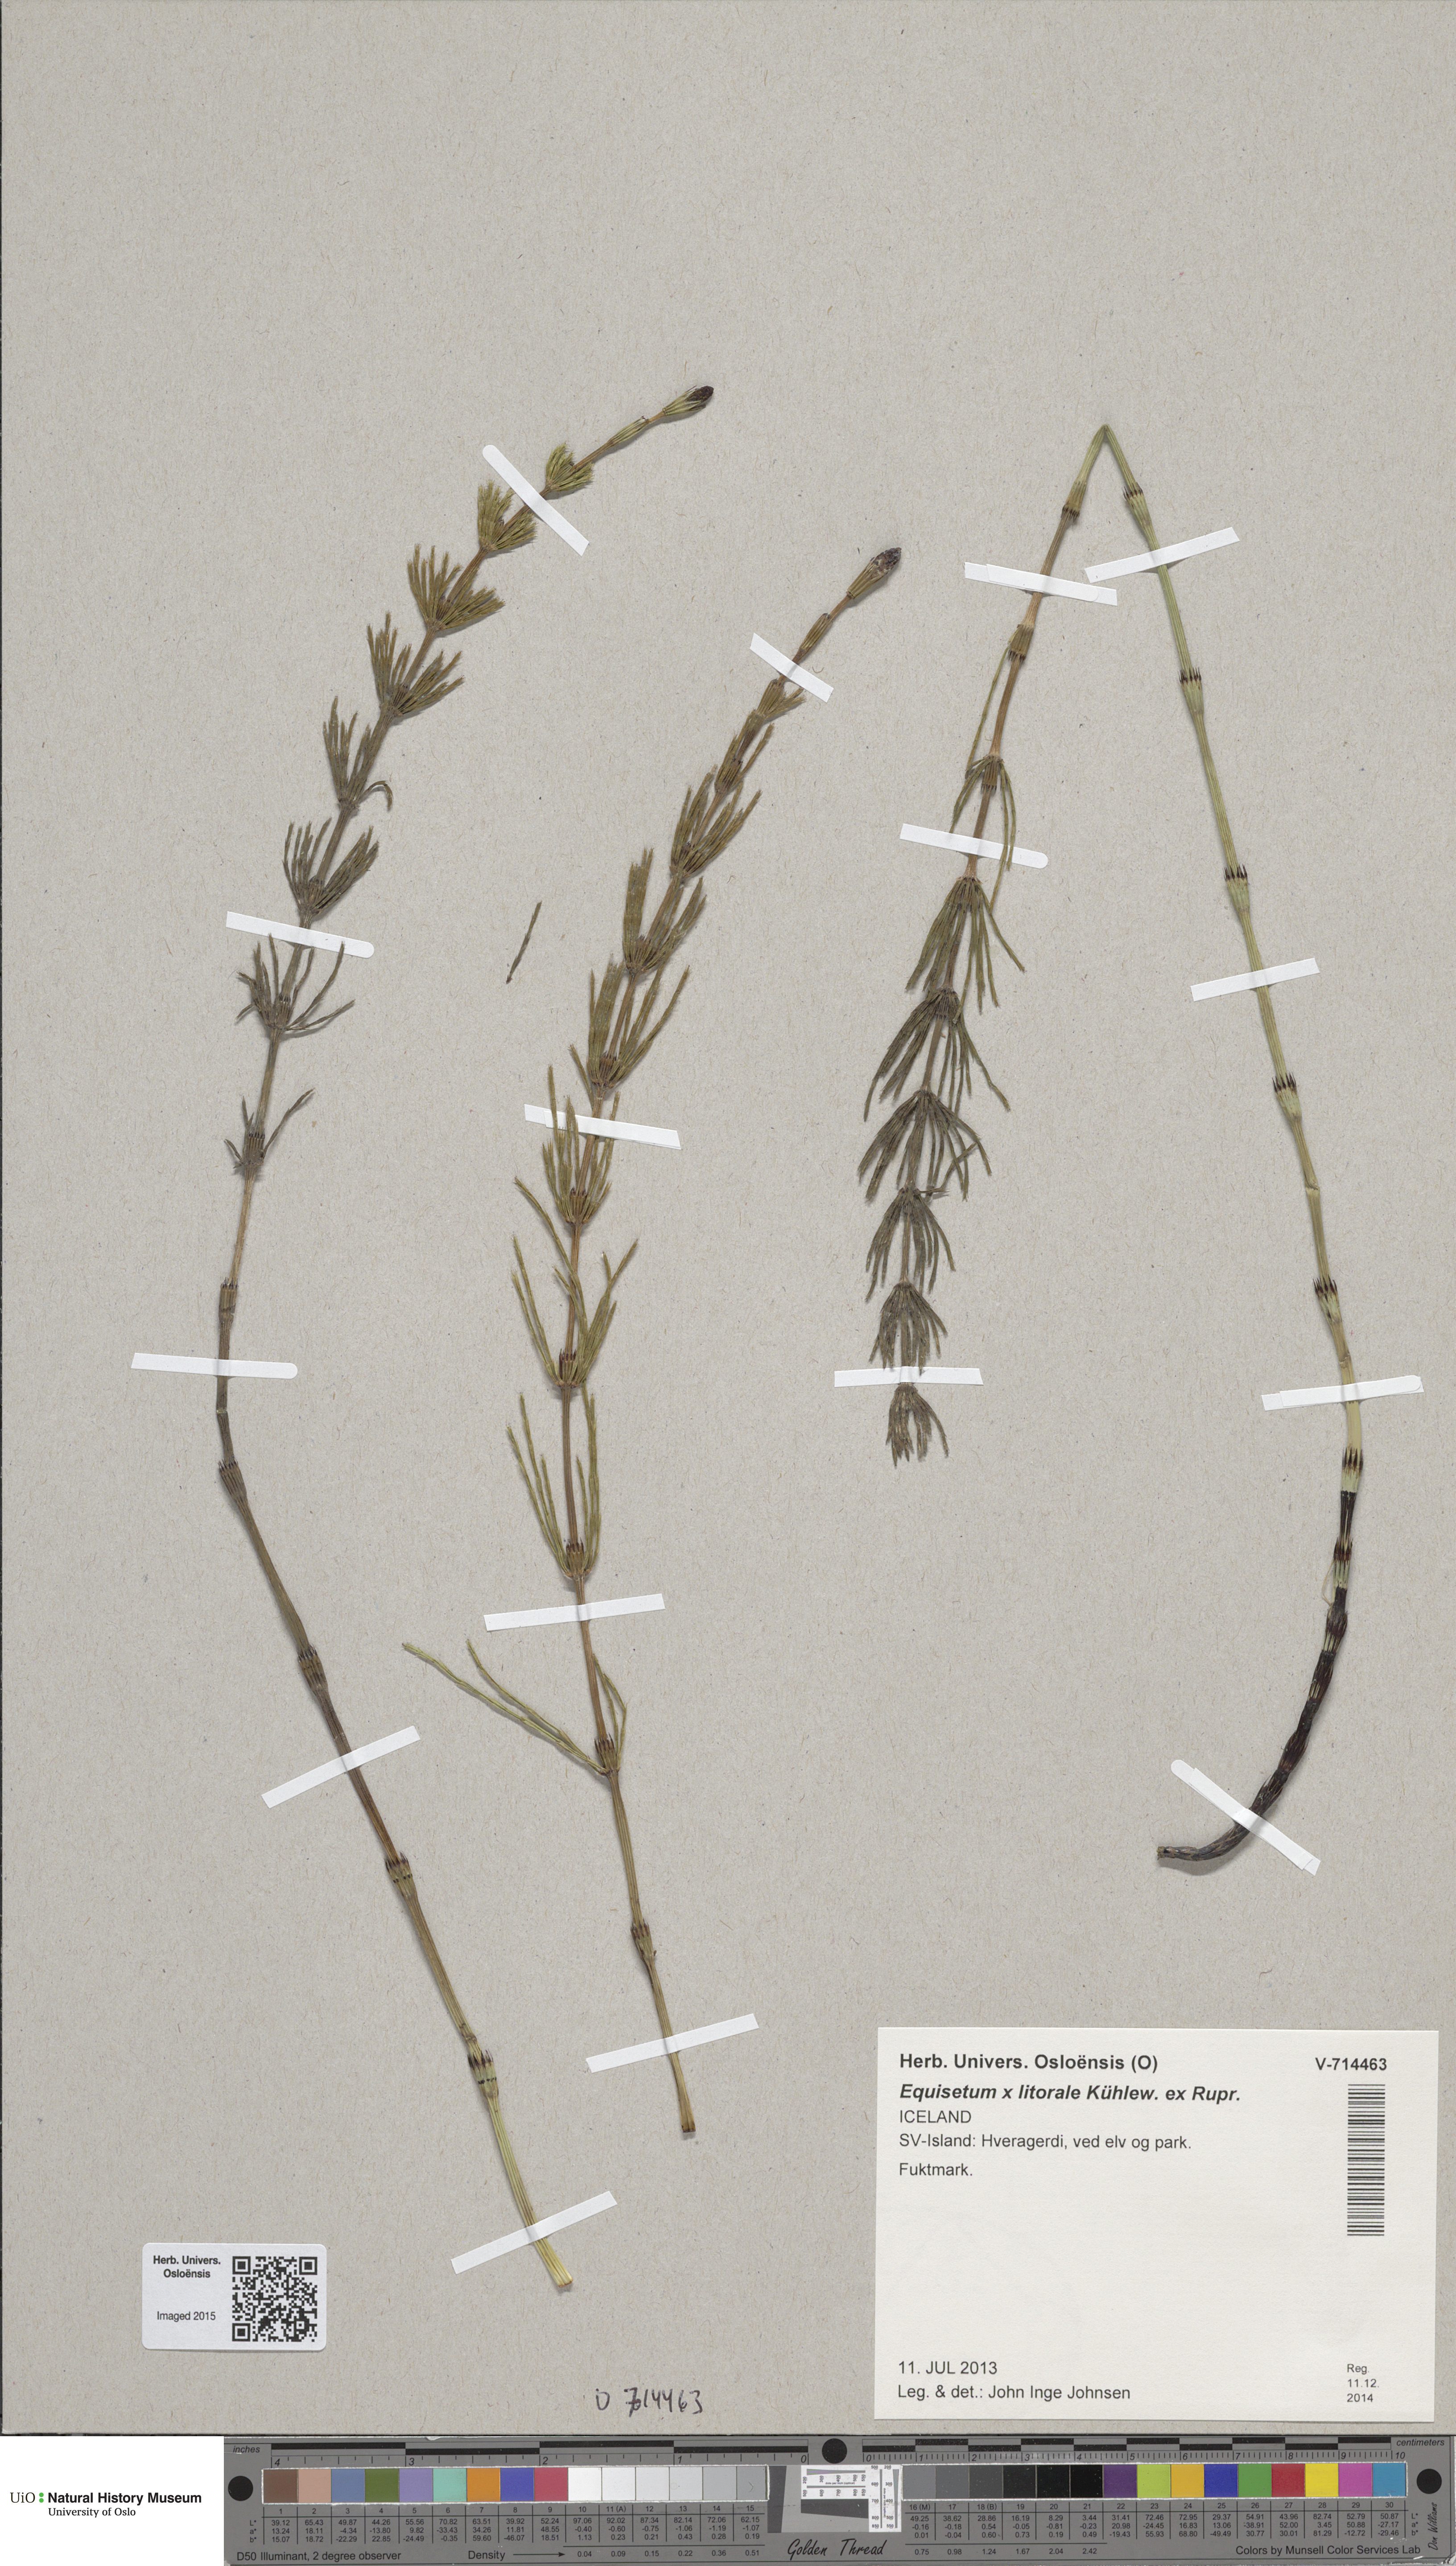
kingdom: Plantae
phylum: Tracheophyta
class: Polypodiopsida
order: Equisetales
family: Equisetaceae
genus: Equisetum
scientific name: Equisetum litorale
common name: Littoral horsetail
